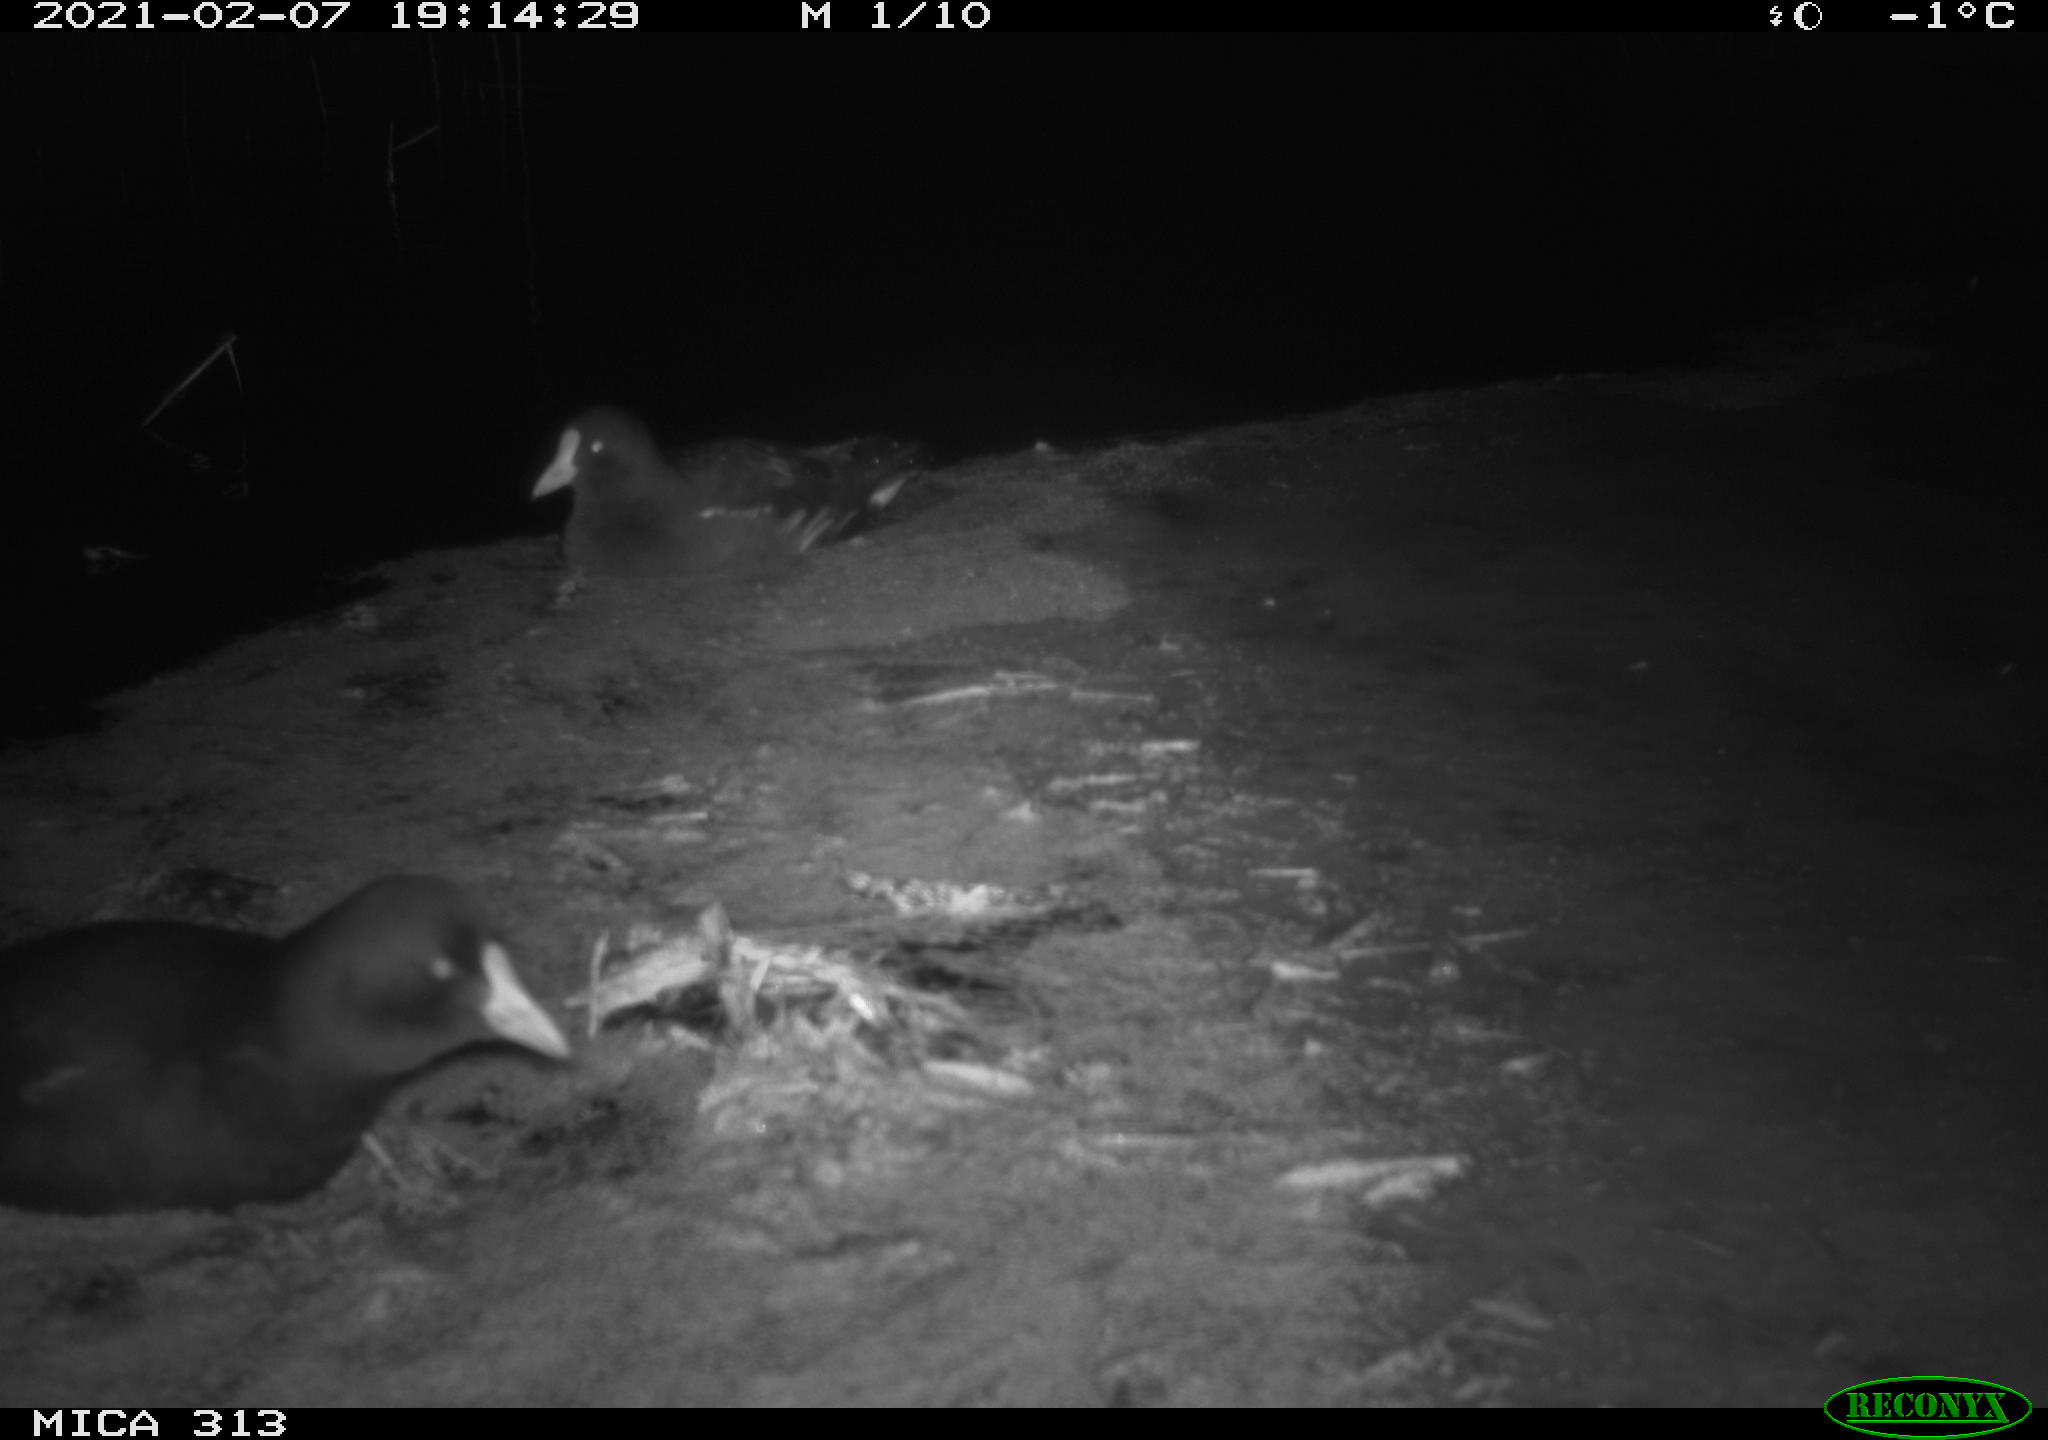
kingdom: Animalia
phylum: Chordata
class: Aves
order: Gruiformes
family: Rallidae
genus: Gallinula
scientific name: Gallinula chloropus
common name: Common moorhen
